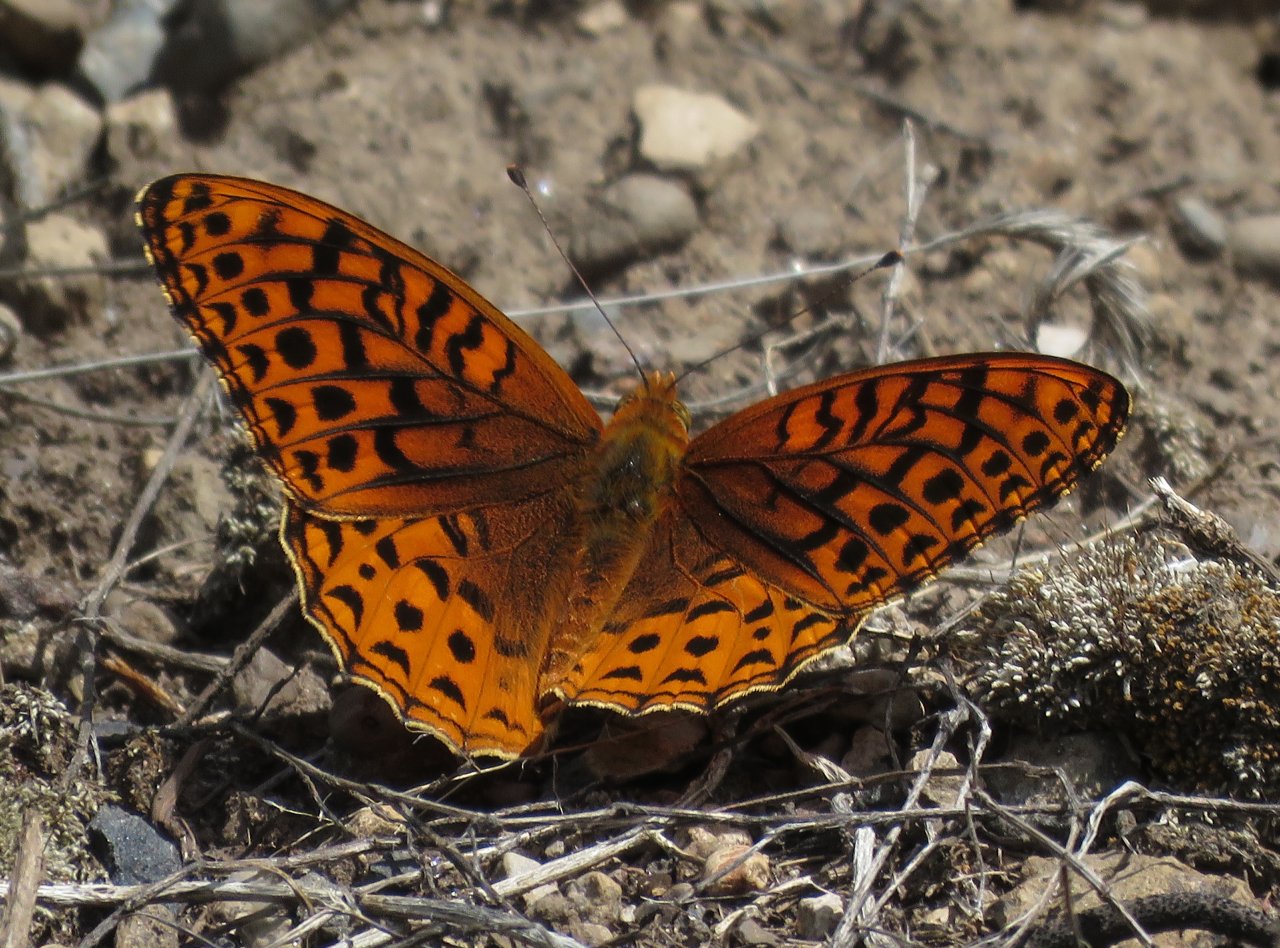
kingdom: Animalia
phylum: Arthropoda
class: Insecta
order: Lepidoptera
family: Nymphalidae
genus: Speyeria
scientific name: Speyeria atlantis
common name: Northwestern Fritillary
